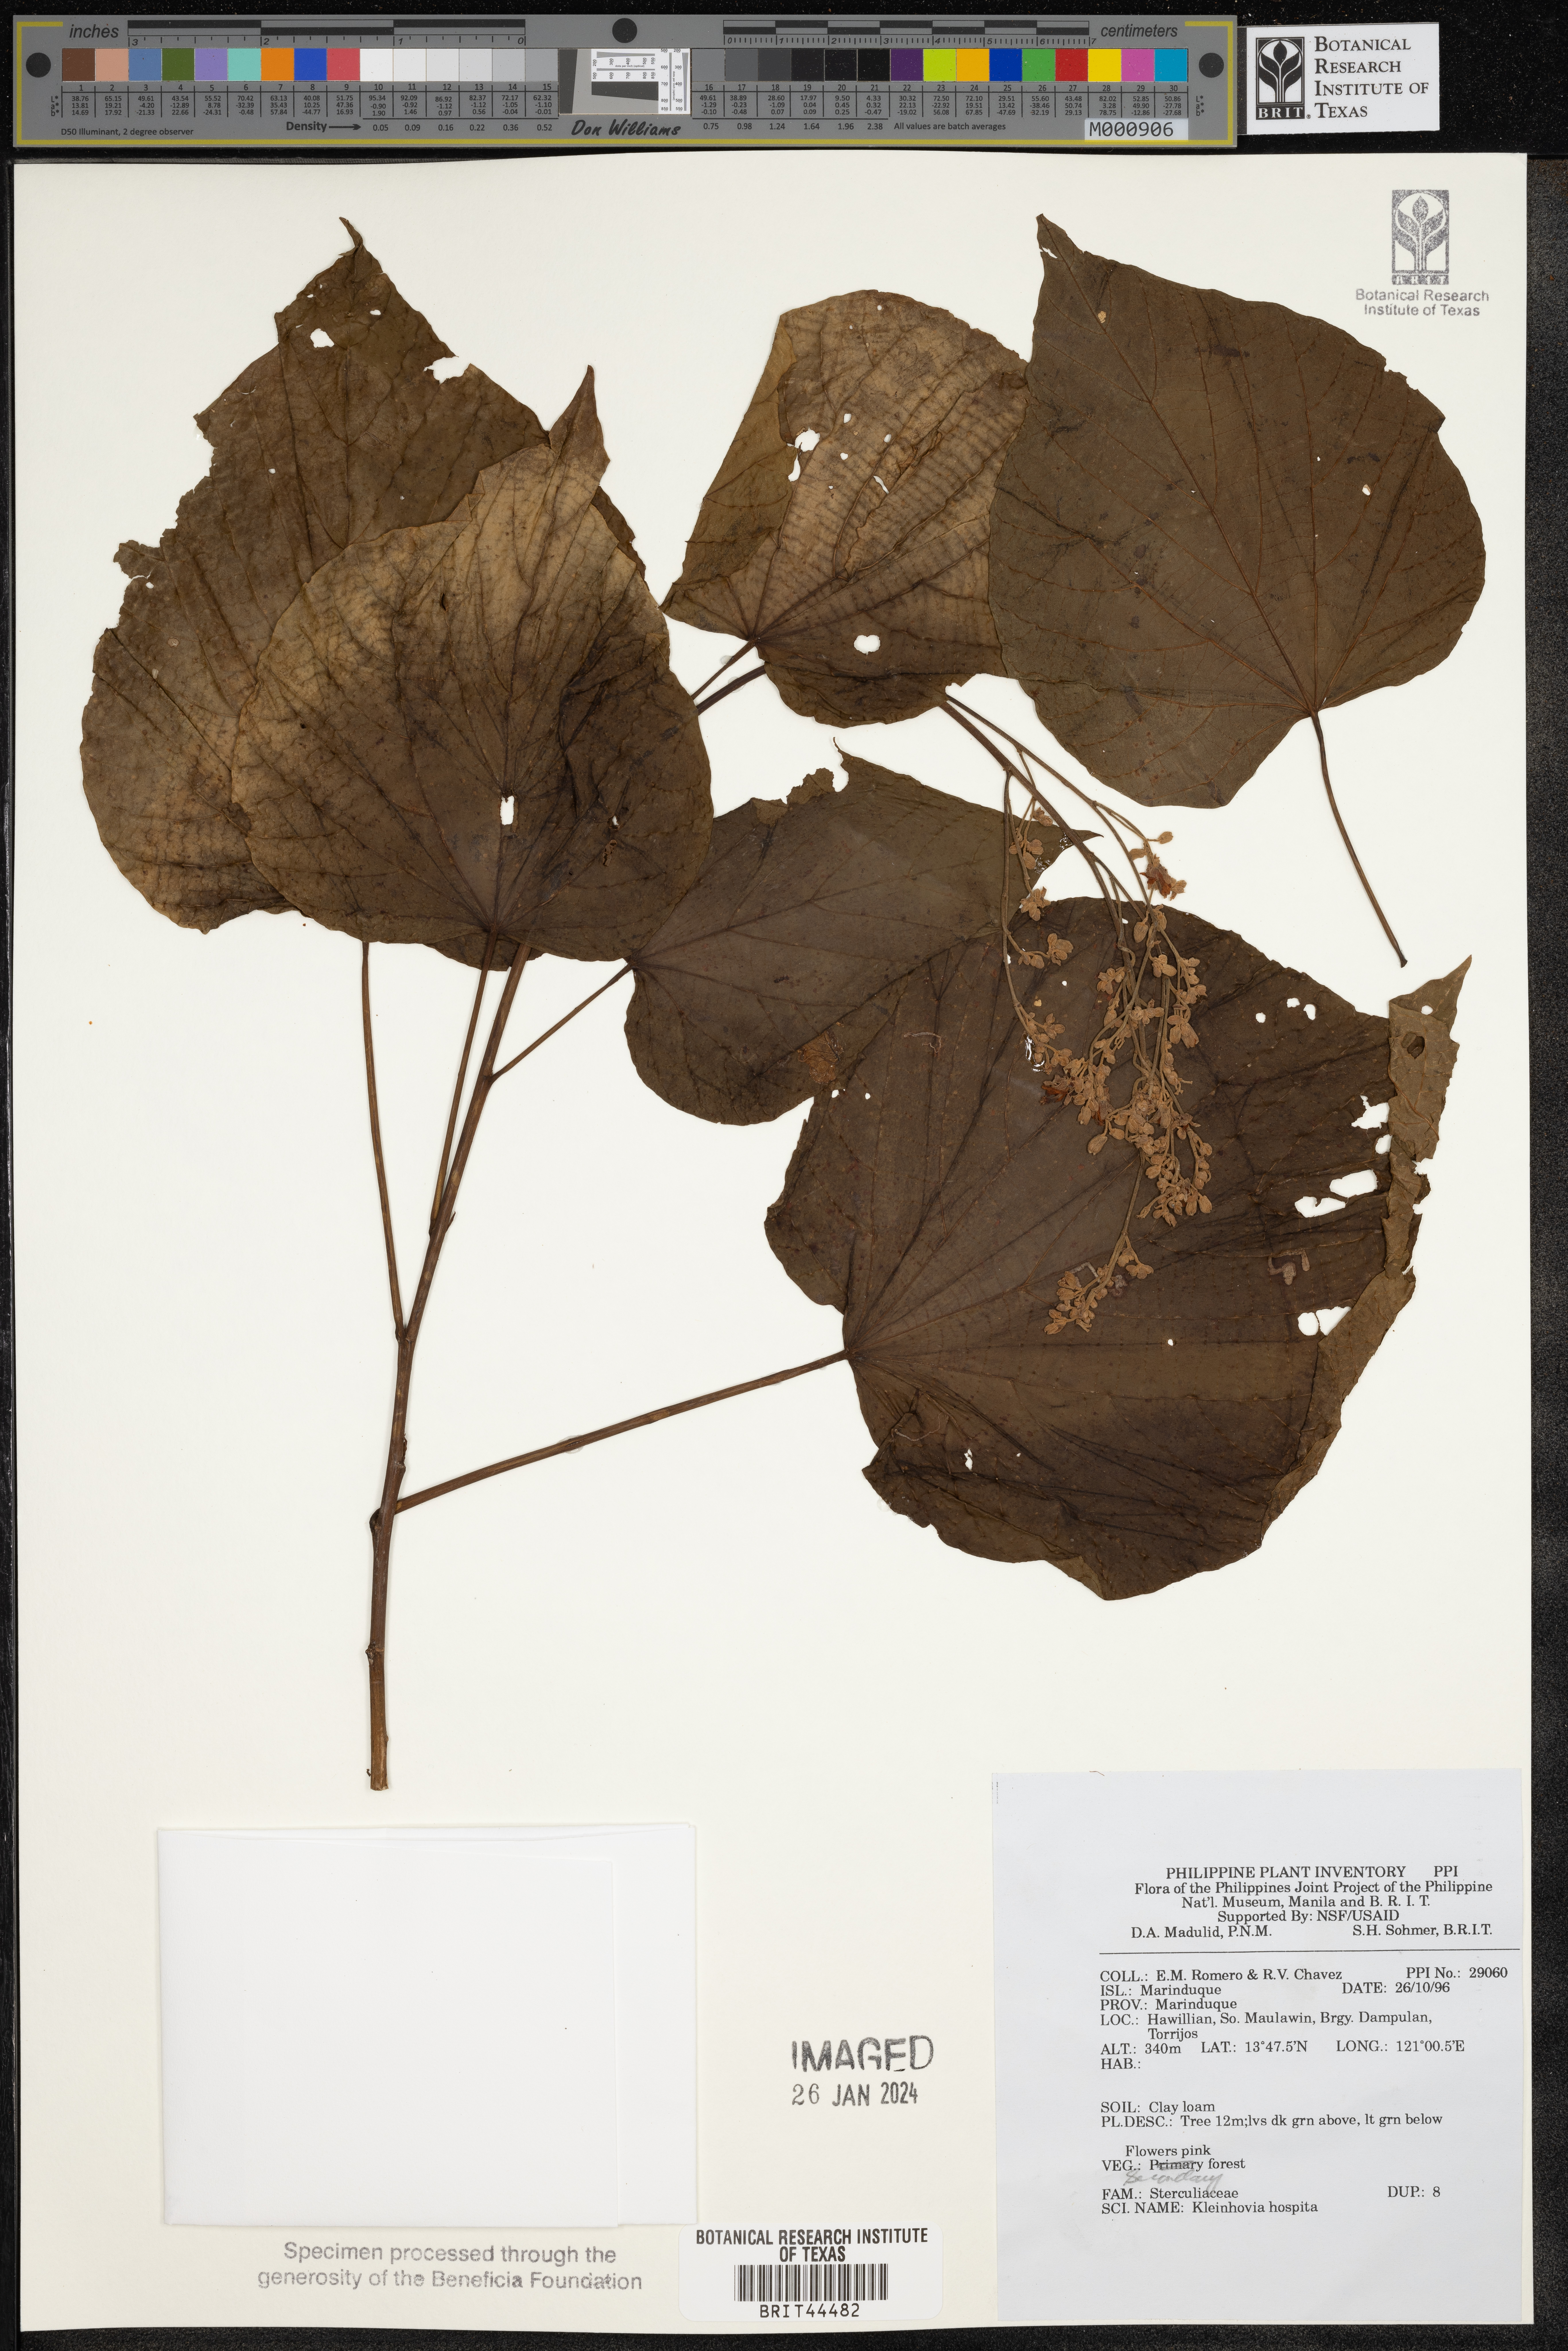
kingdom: Plantae
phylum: Tracheophyta
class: Magnoliopsida
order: Malvales
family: Malvaceae
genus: Kleinhovia
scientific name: Kleinhovia hospita
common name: Guest-tree
